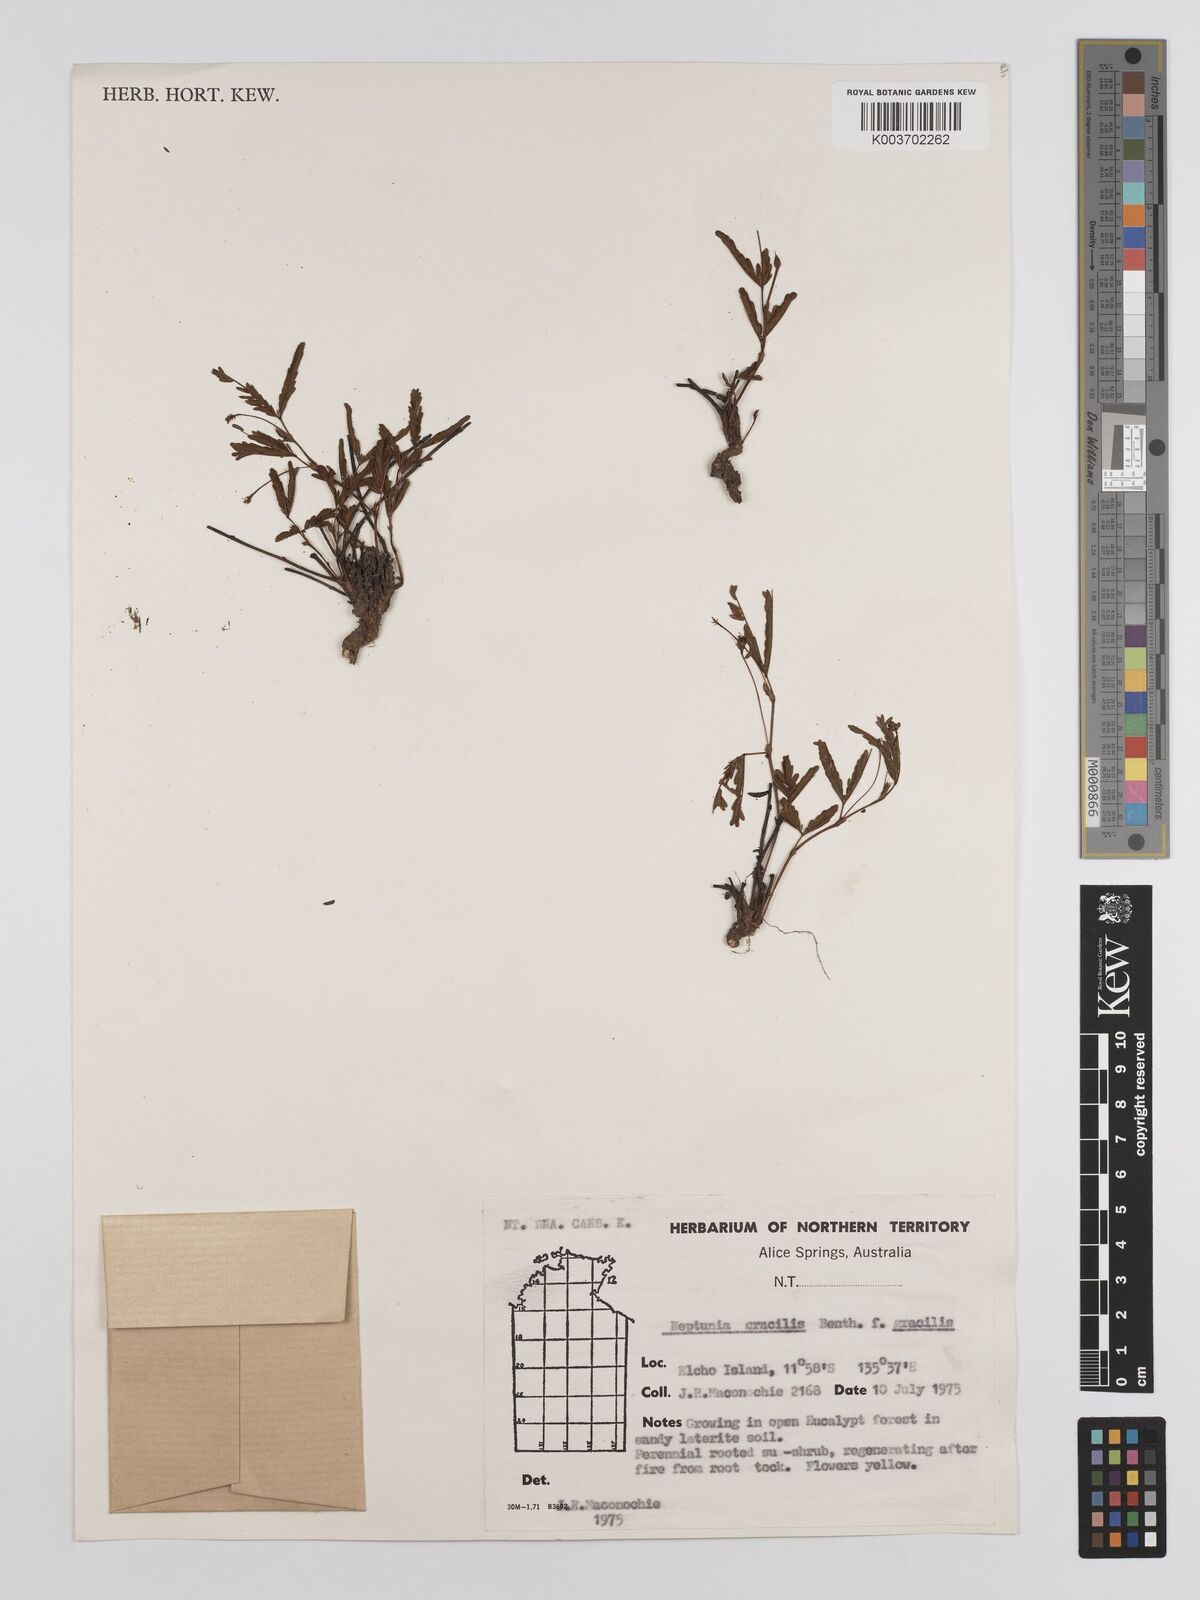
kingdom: Plantae
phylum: Tracheophyta
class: Magnoliopsida
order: Fabales
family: Fabaceae
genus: Neptunia
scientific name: Neptunia gracilis
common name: Sensitive-plant
